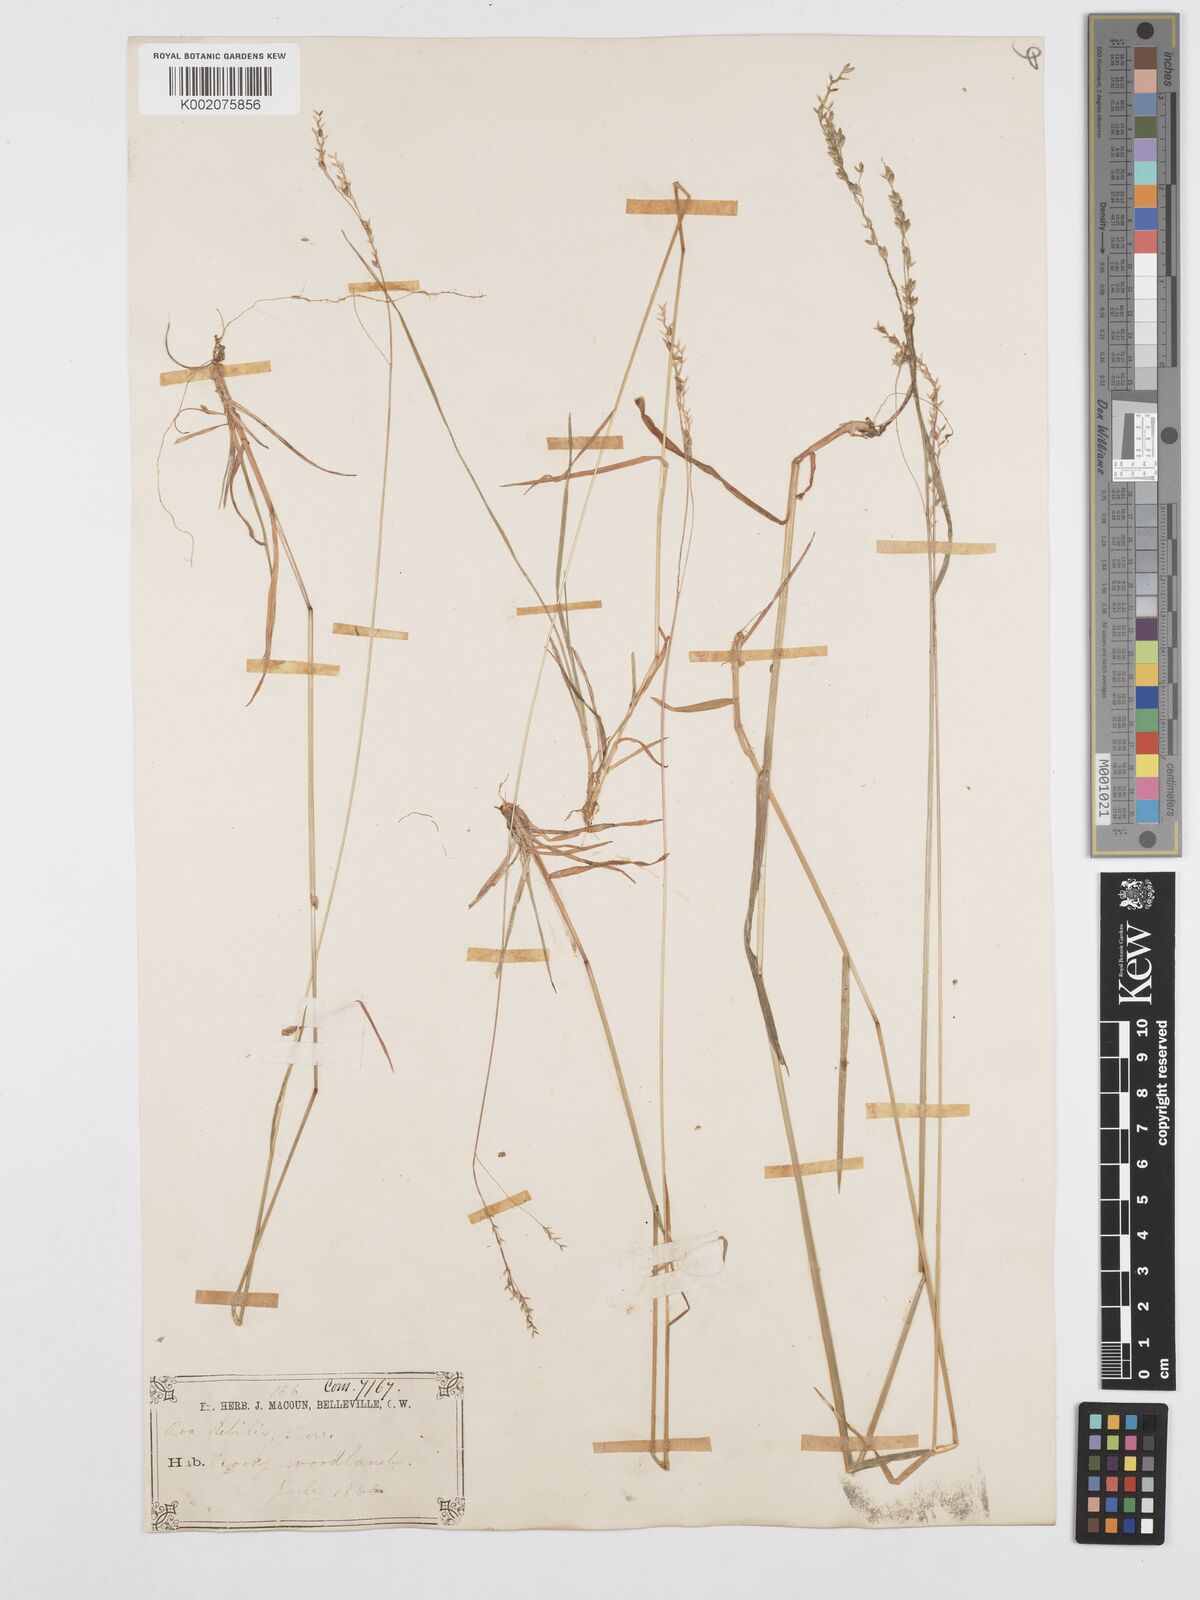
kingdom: Plantae
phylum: Tracheophyta
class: Liliopsida
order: Poales
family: Poaceae
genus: Poa
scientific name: Poa saltuensis
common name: Bushy pasture speargrass
